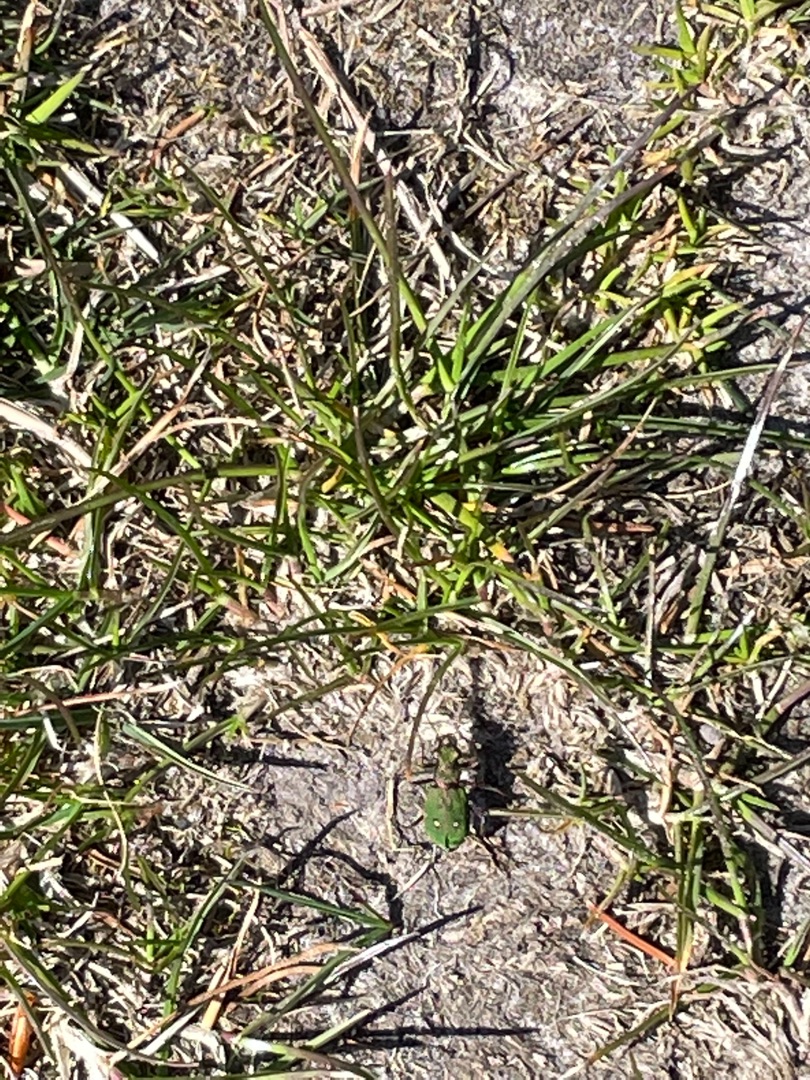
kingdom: Animalia
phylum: Arthropoda
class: Insecta
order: Coleoptera
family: Carabidae
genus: Cicindela
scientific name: Cicindela campestris
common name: Grøn sandspringer
